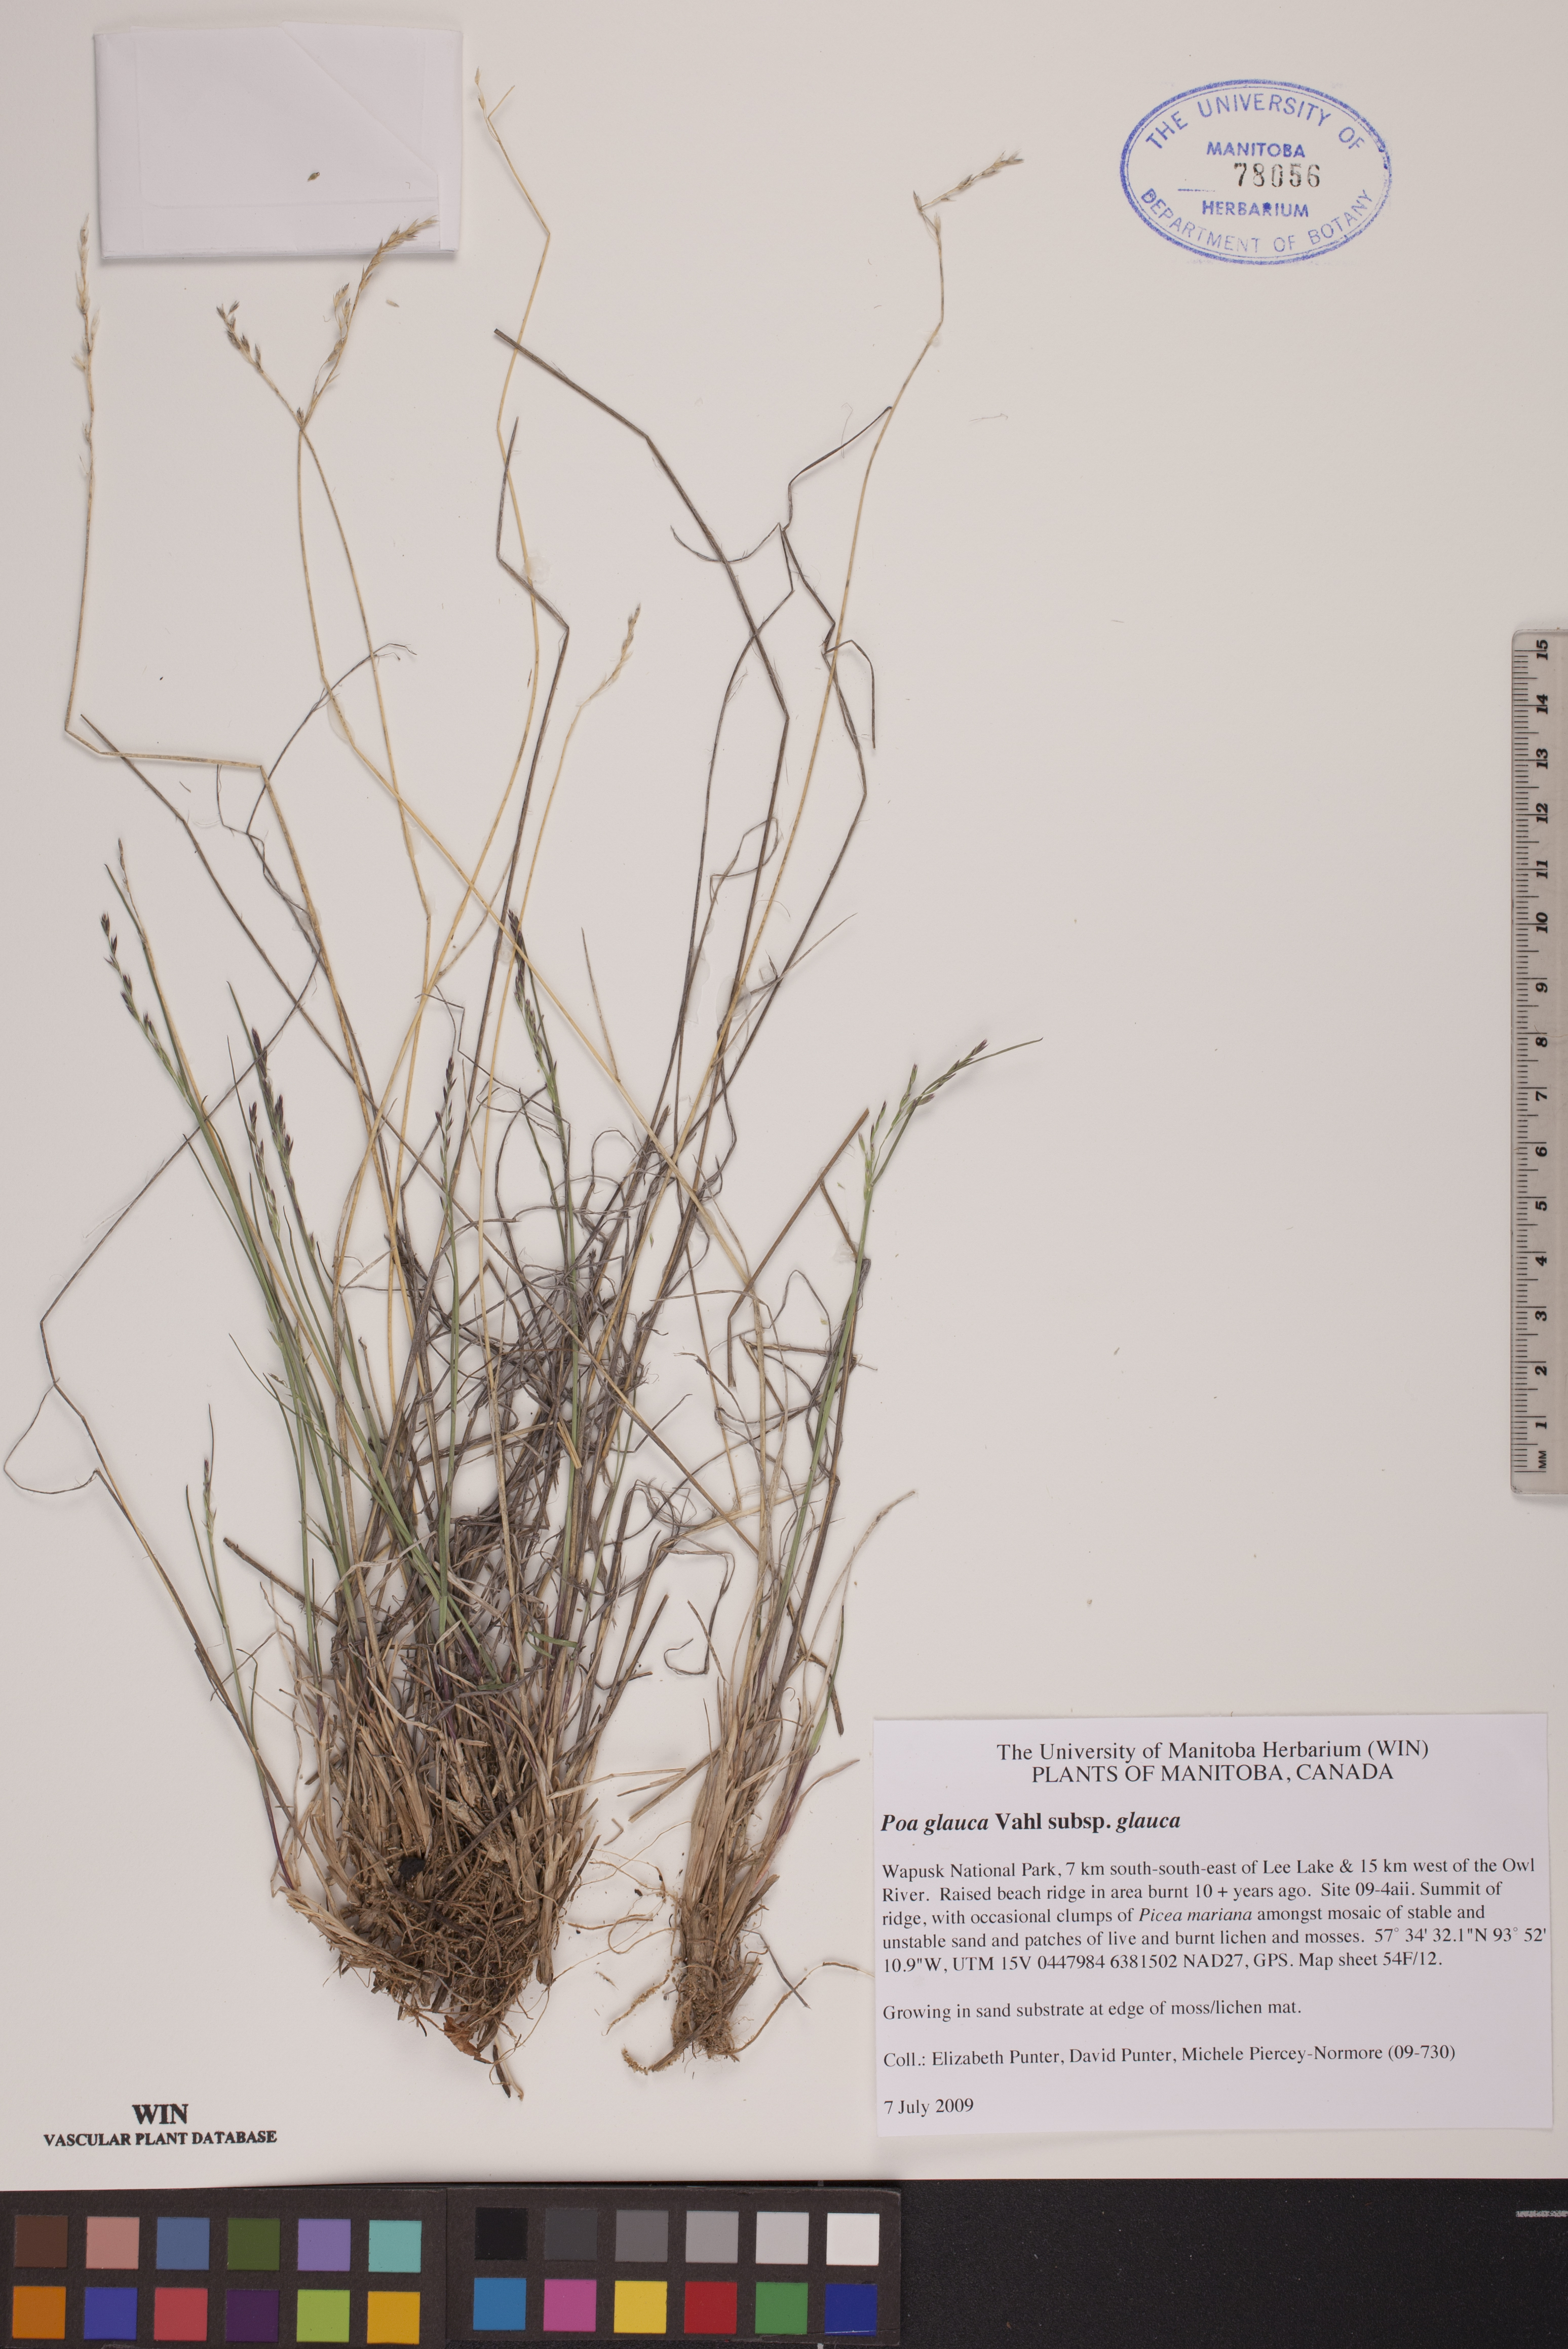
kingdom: Plantae
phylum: Tracheophyta
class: Liliopsida
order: Poales
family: Poaceae
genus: Poa
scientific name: Poa glauca
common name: Glaucous bluegrass
